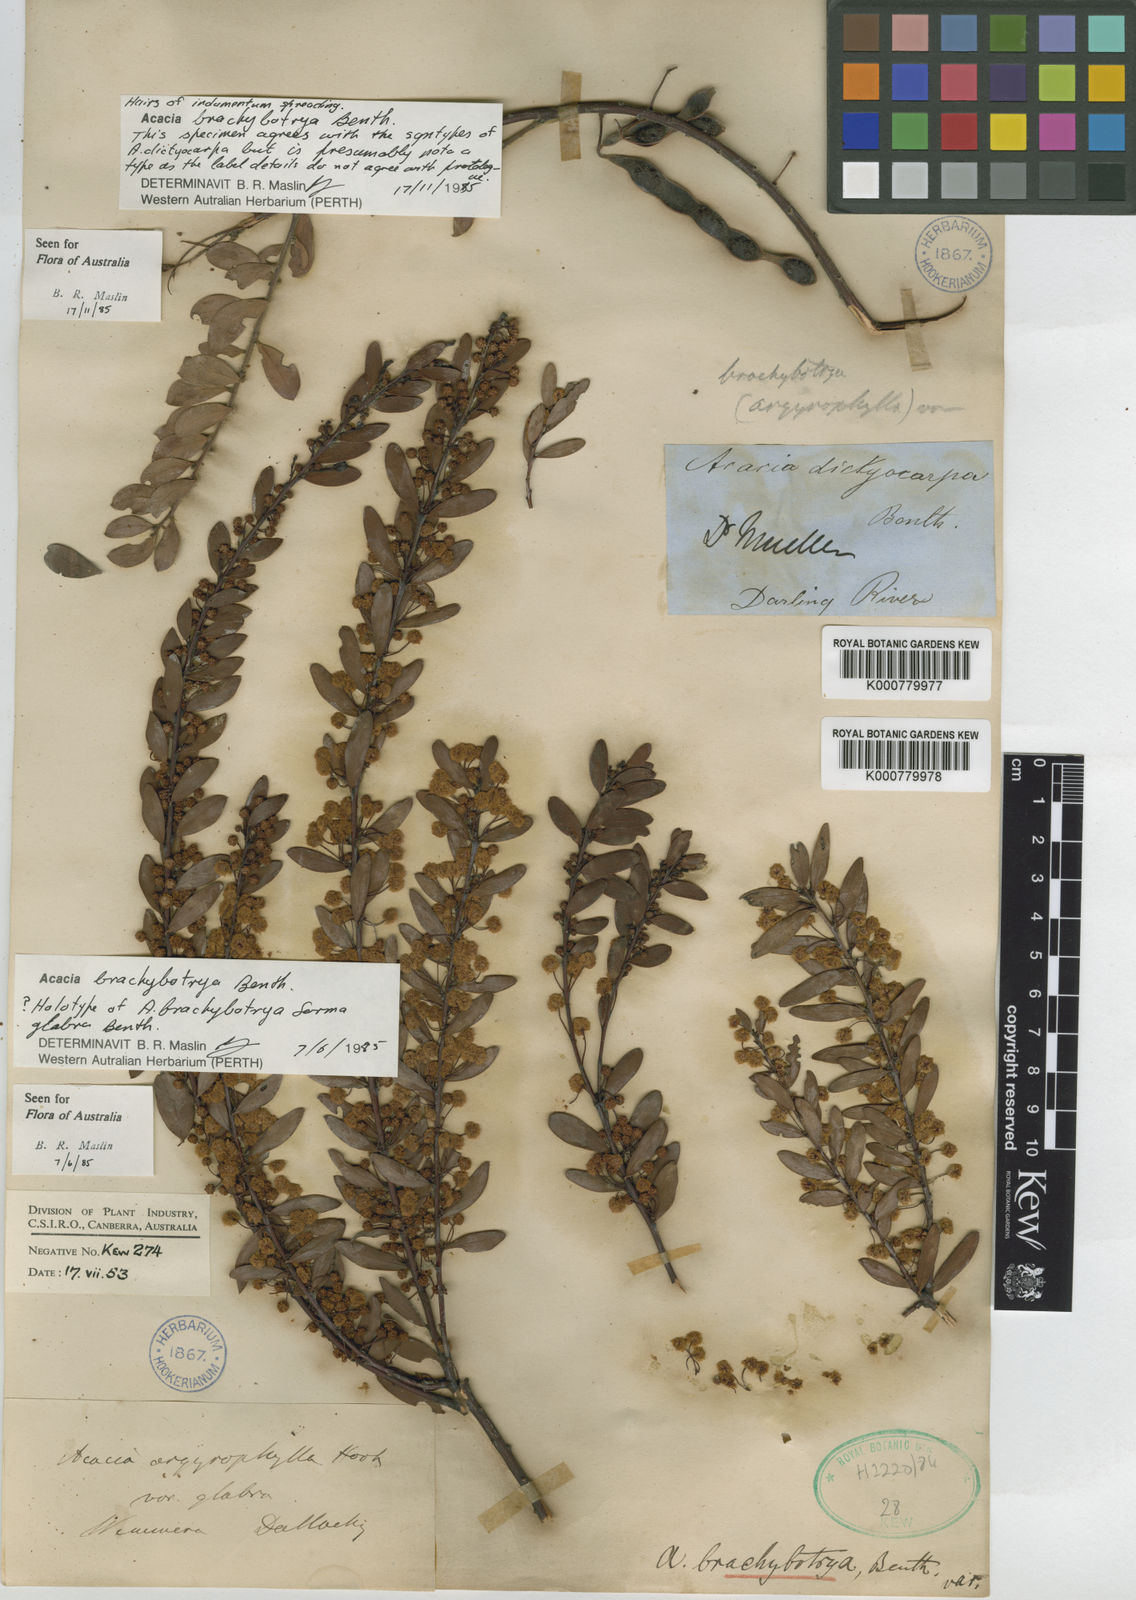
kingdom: Plantae
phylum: Tracheophyta
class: Magnoliopsida
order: Fabales
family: Fabaceae
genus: Acacia
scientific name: Acacia brachybotrya
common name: Grey mulga
